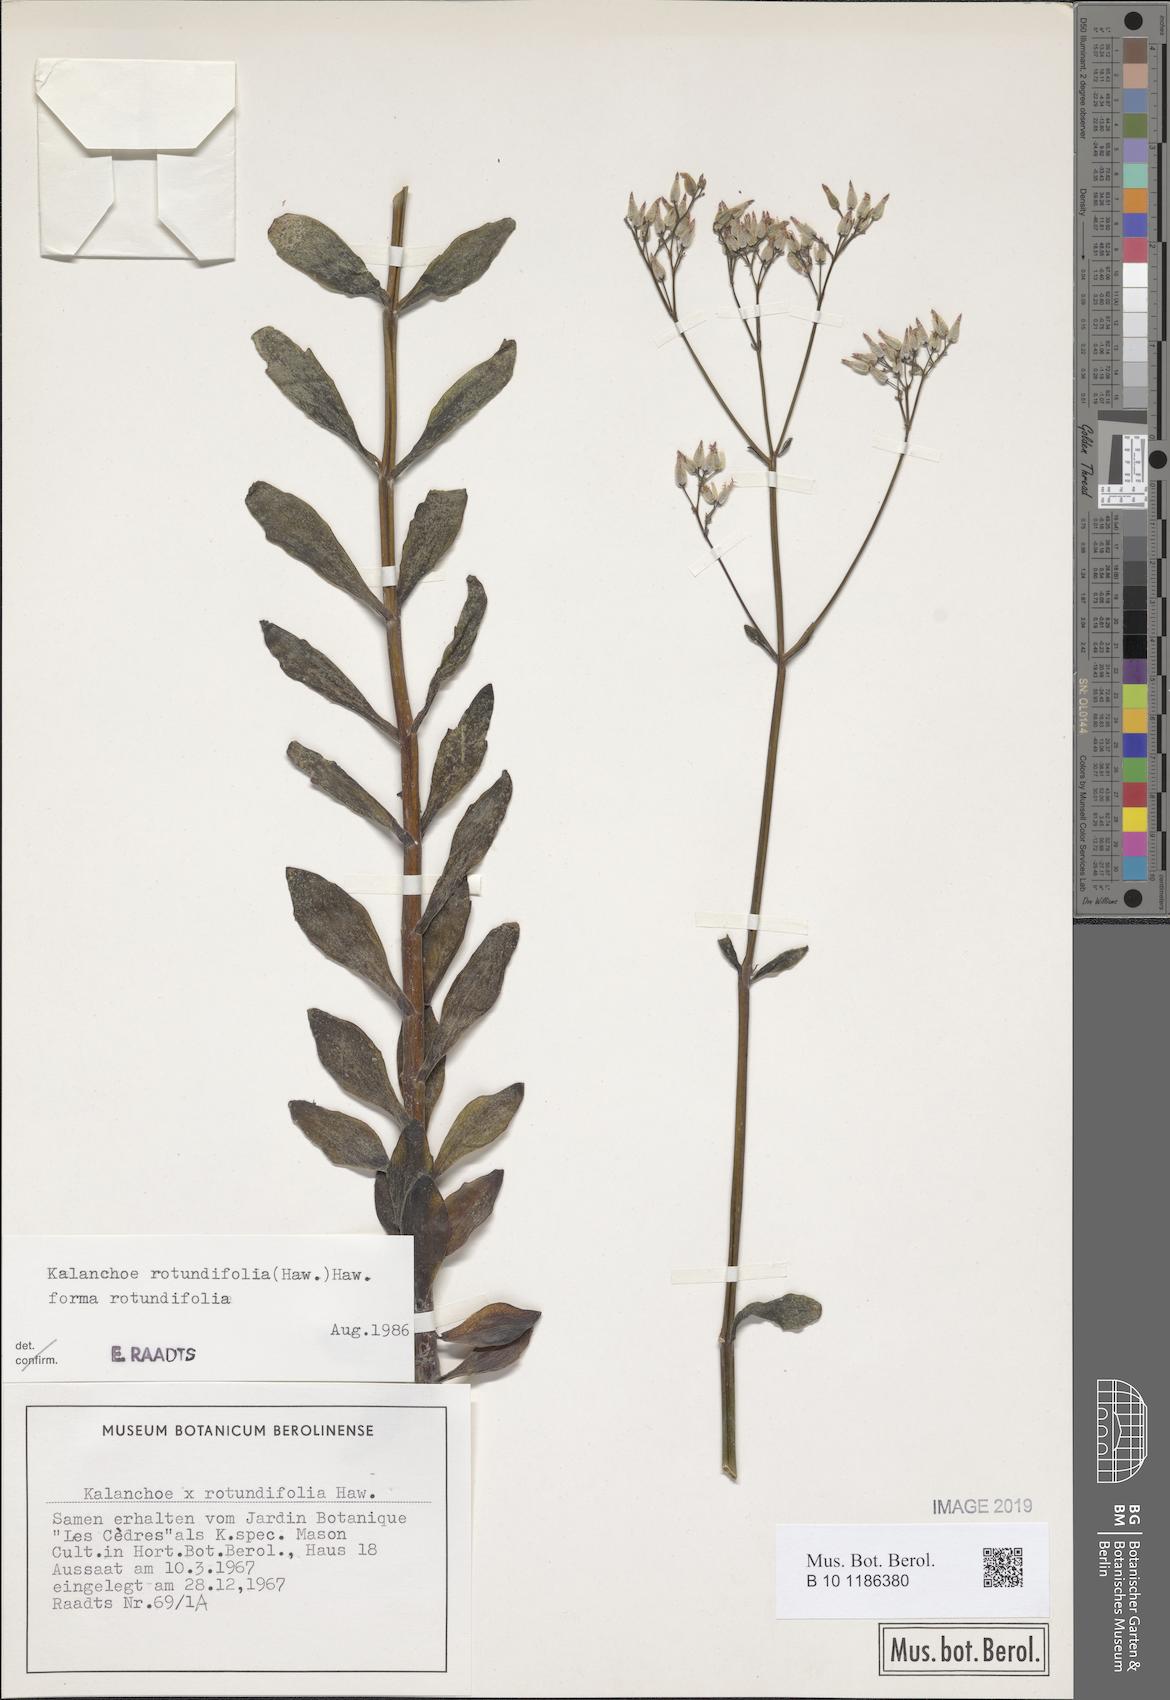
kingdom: Plantae
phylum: Tracheophyta
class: Magnoliopsida
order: Saxifragales
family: Crassulaceae
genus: Kalanchoe
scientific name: Kalanchoe rotundifolia
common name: Common kalanchoe
